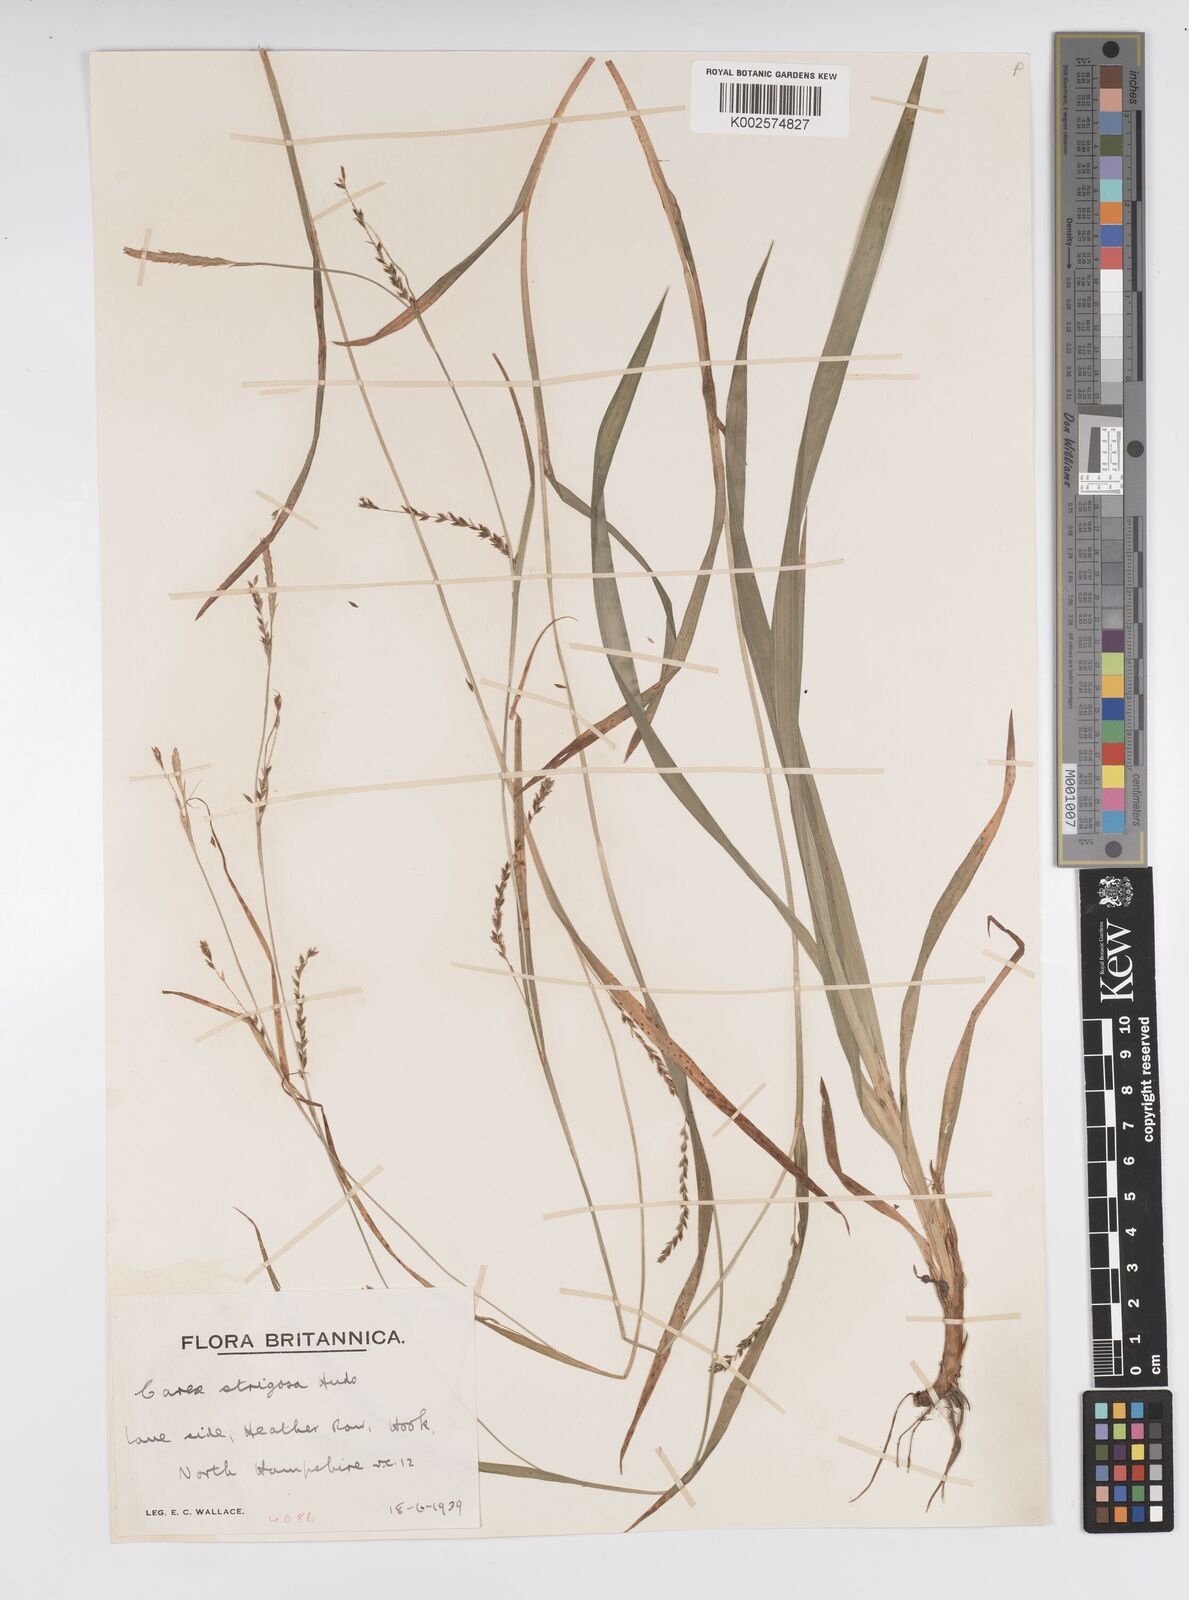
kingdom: Plantae
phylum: Tracheophyta
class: Liliopsida
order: Poales
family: Cyperaceae
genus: Carex
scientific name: Carex strigosa
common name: Thin-spiked wood-sedge
